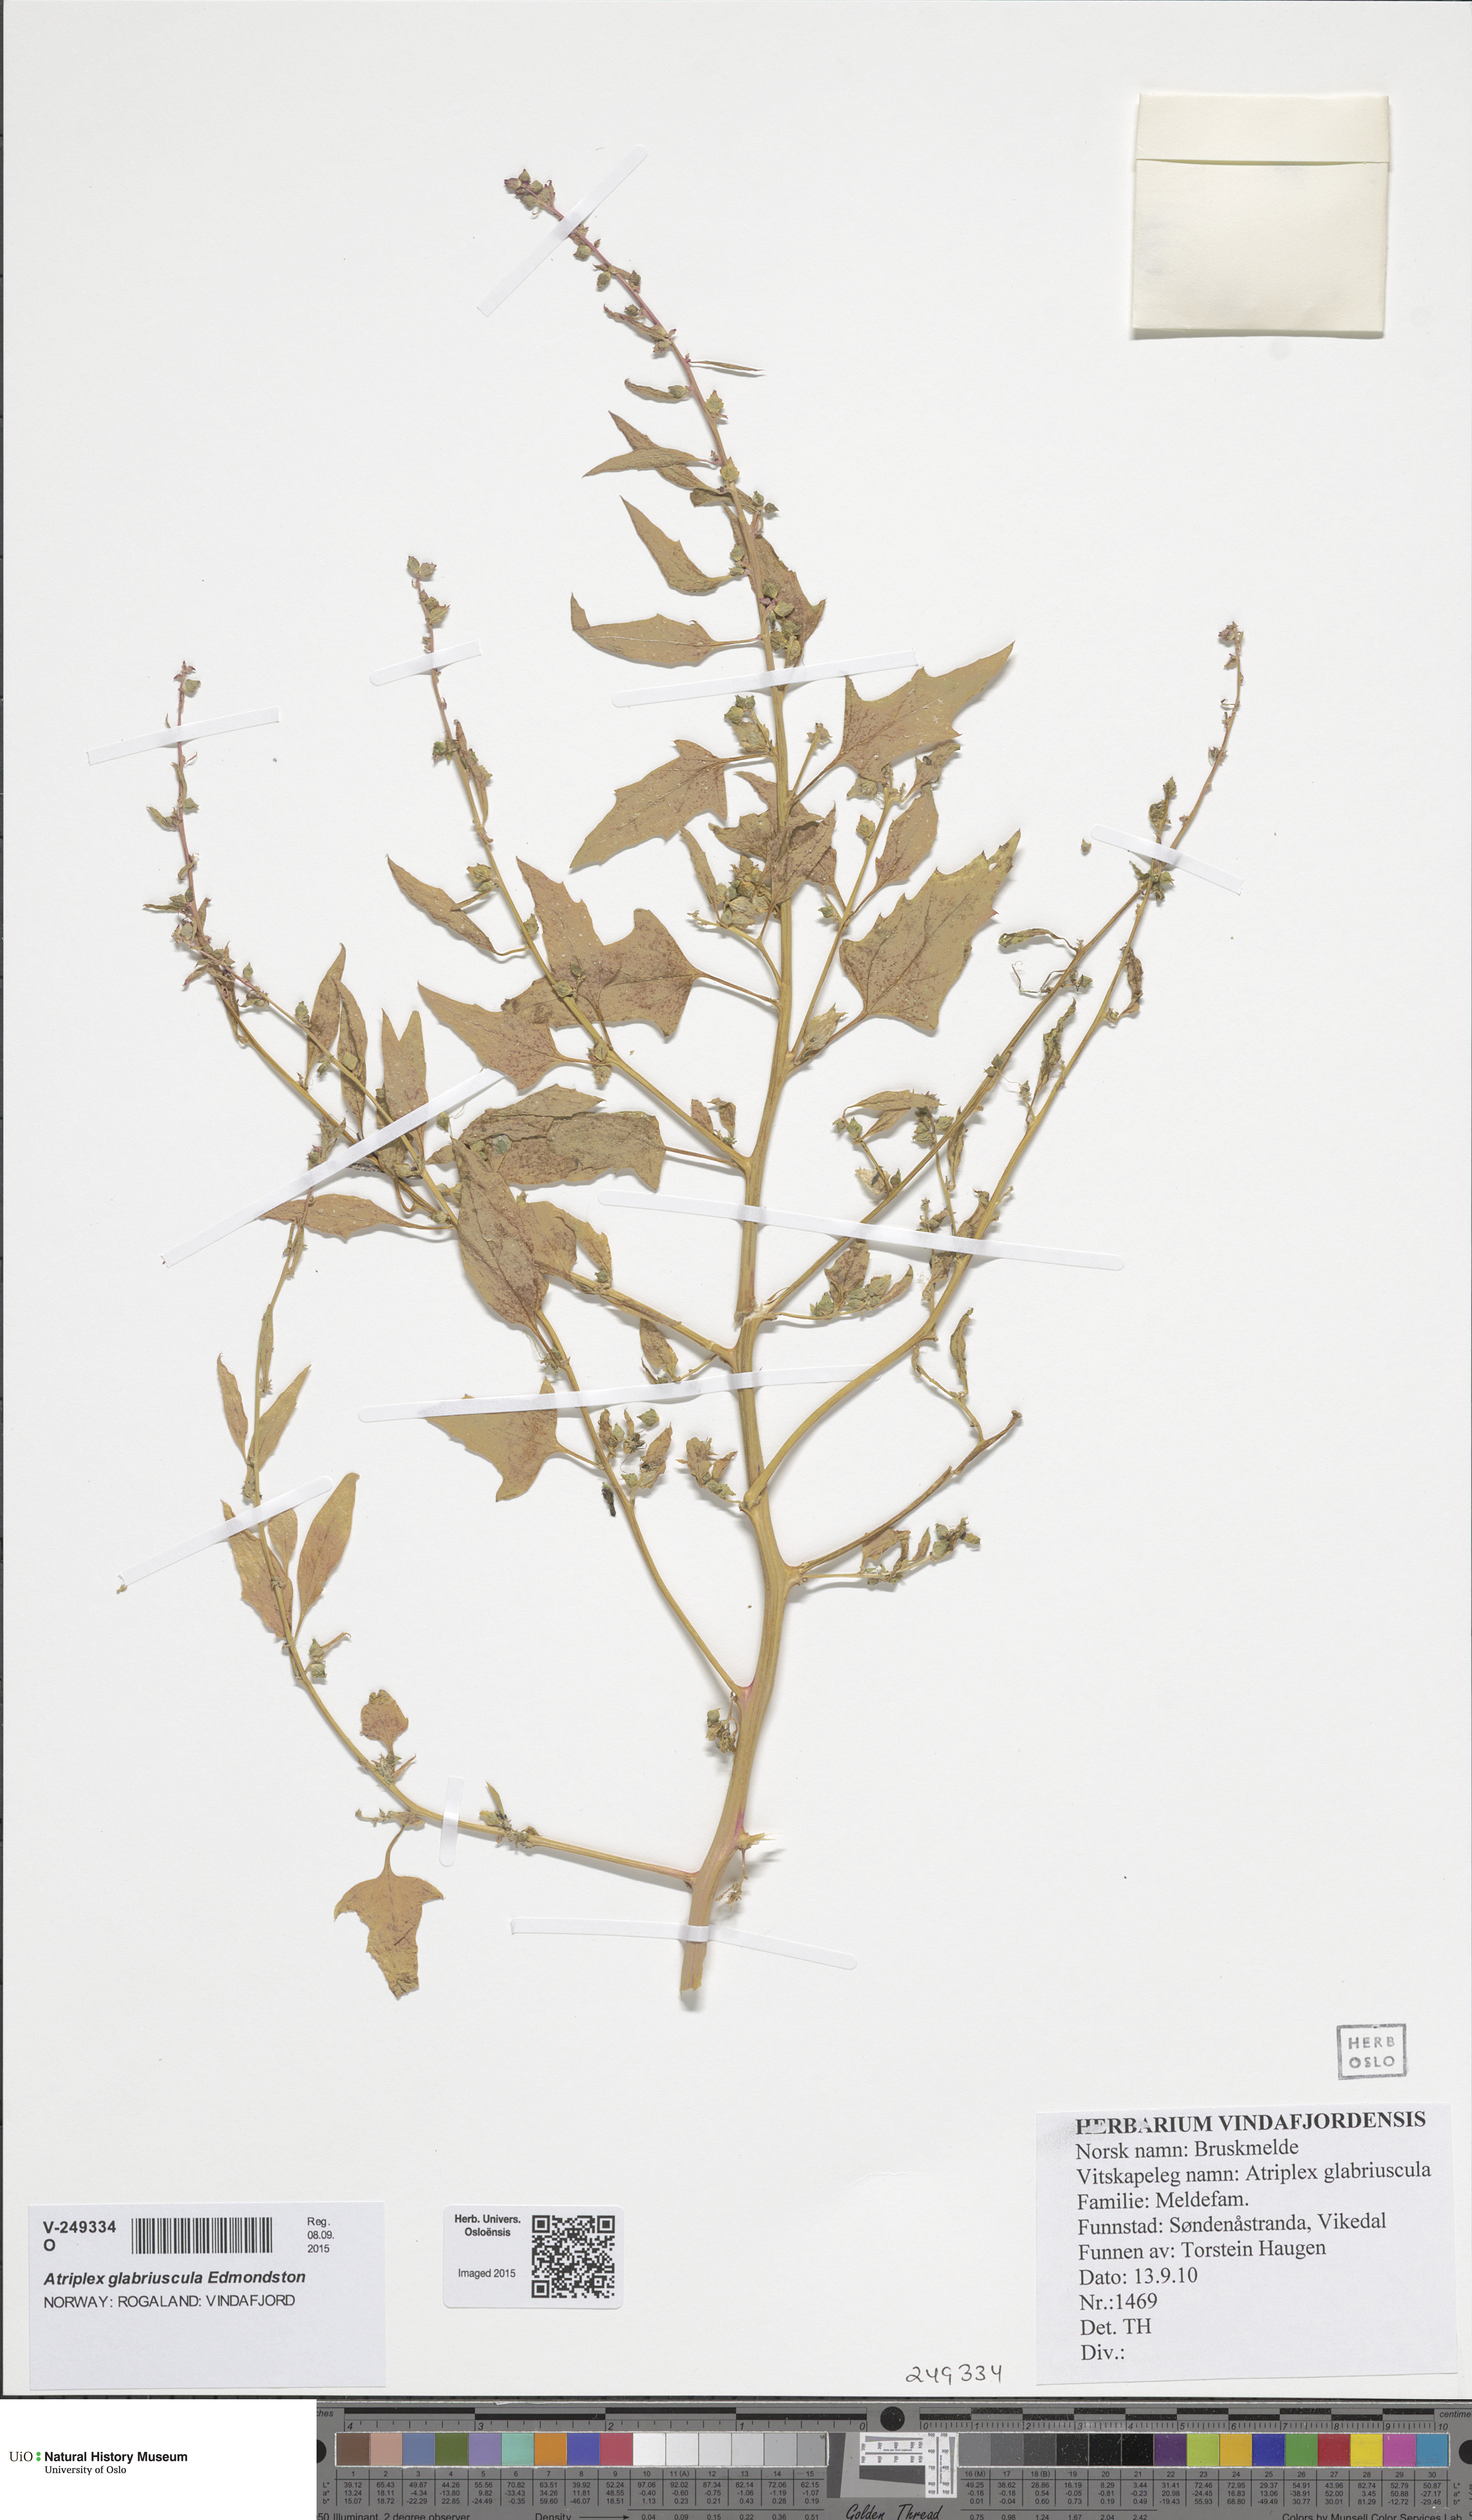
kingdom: Plantae
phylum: Tracheophyta
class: Magnoliopsida
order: Caryophyllales
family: Amaranthaceae
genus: Atriplex
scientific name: Atriplex prostrata
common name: Spear-leaved orache
